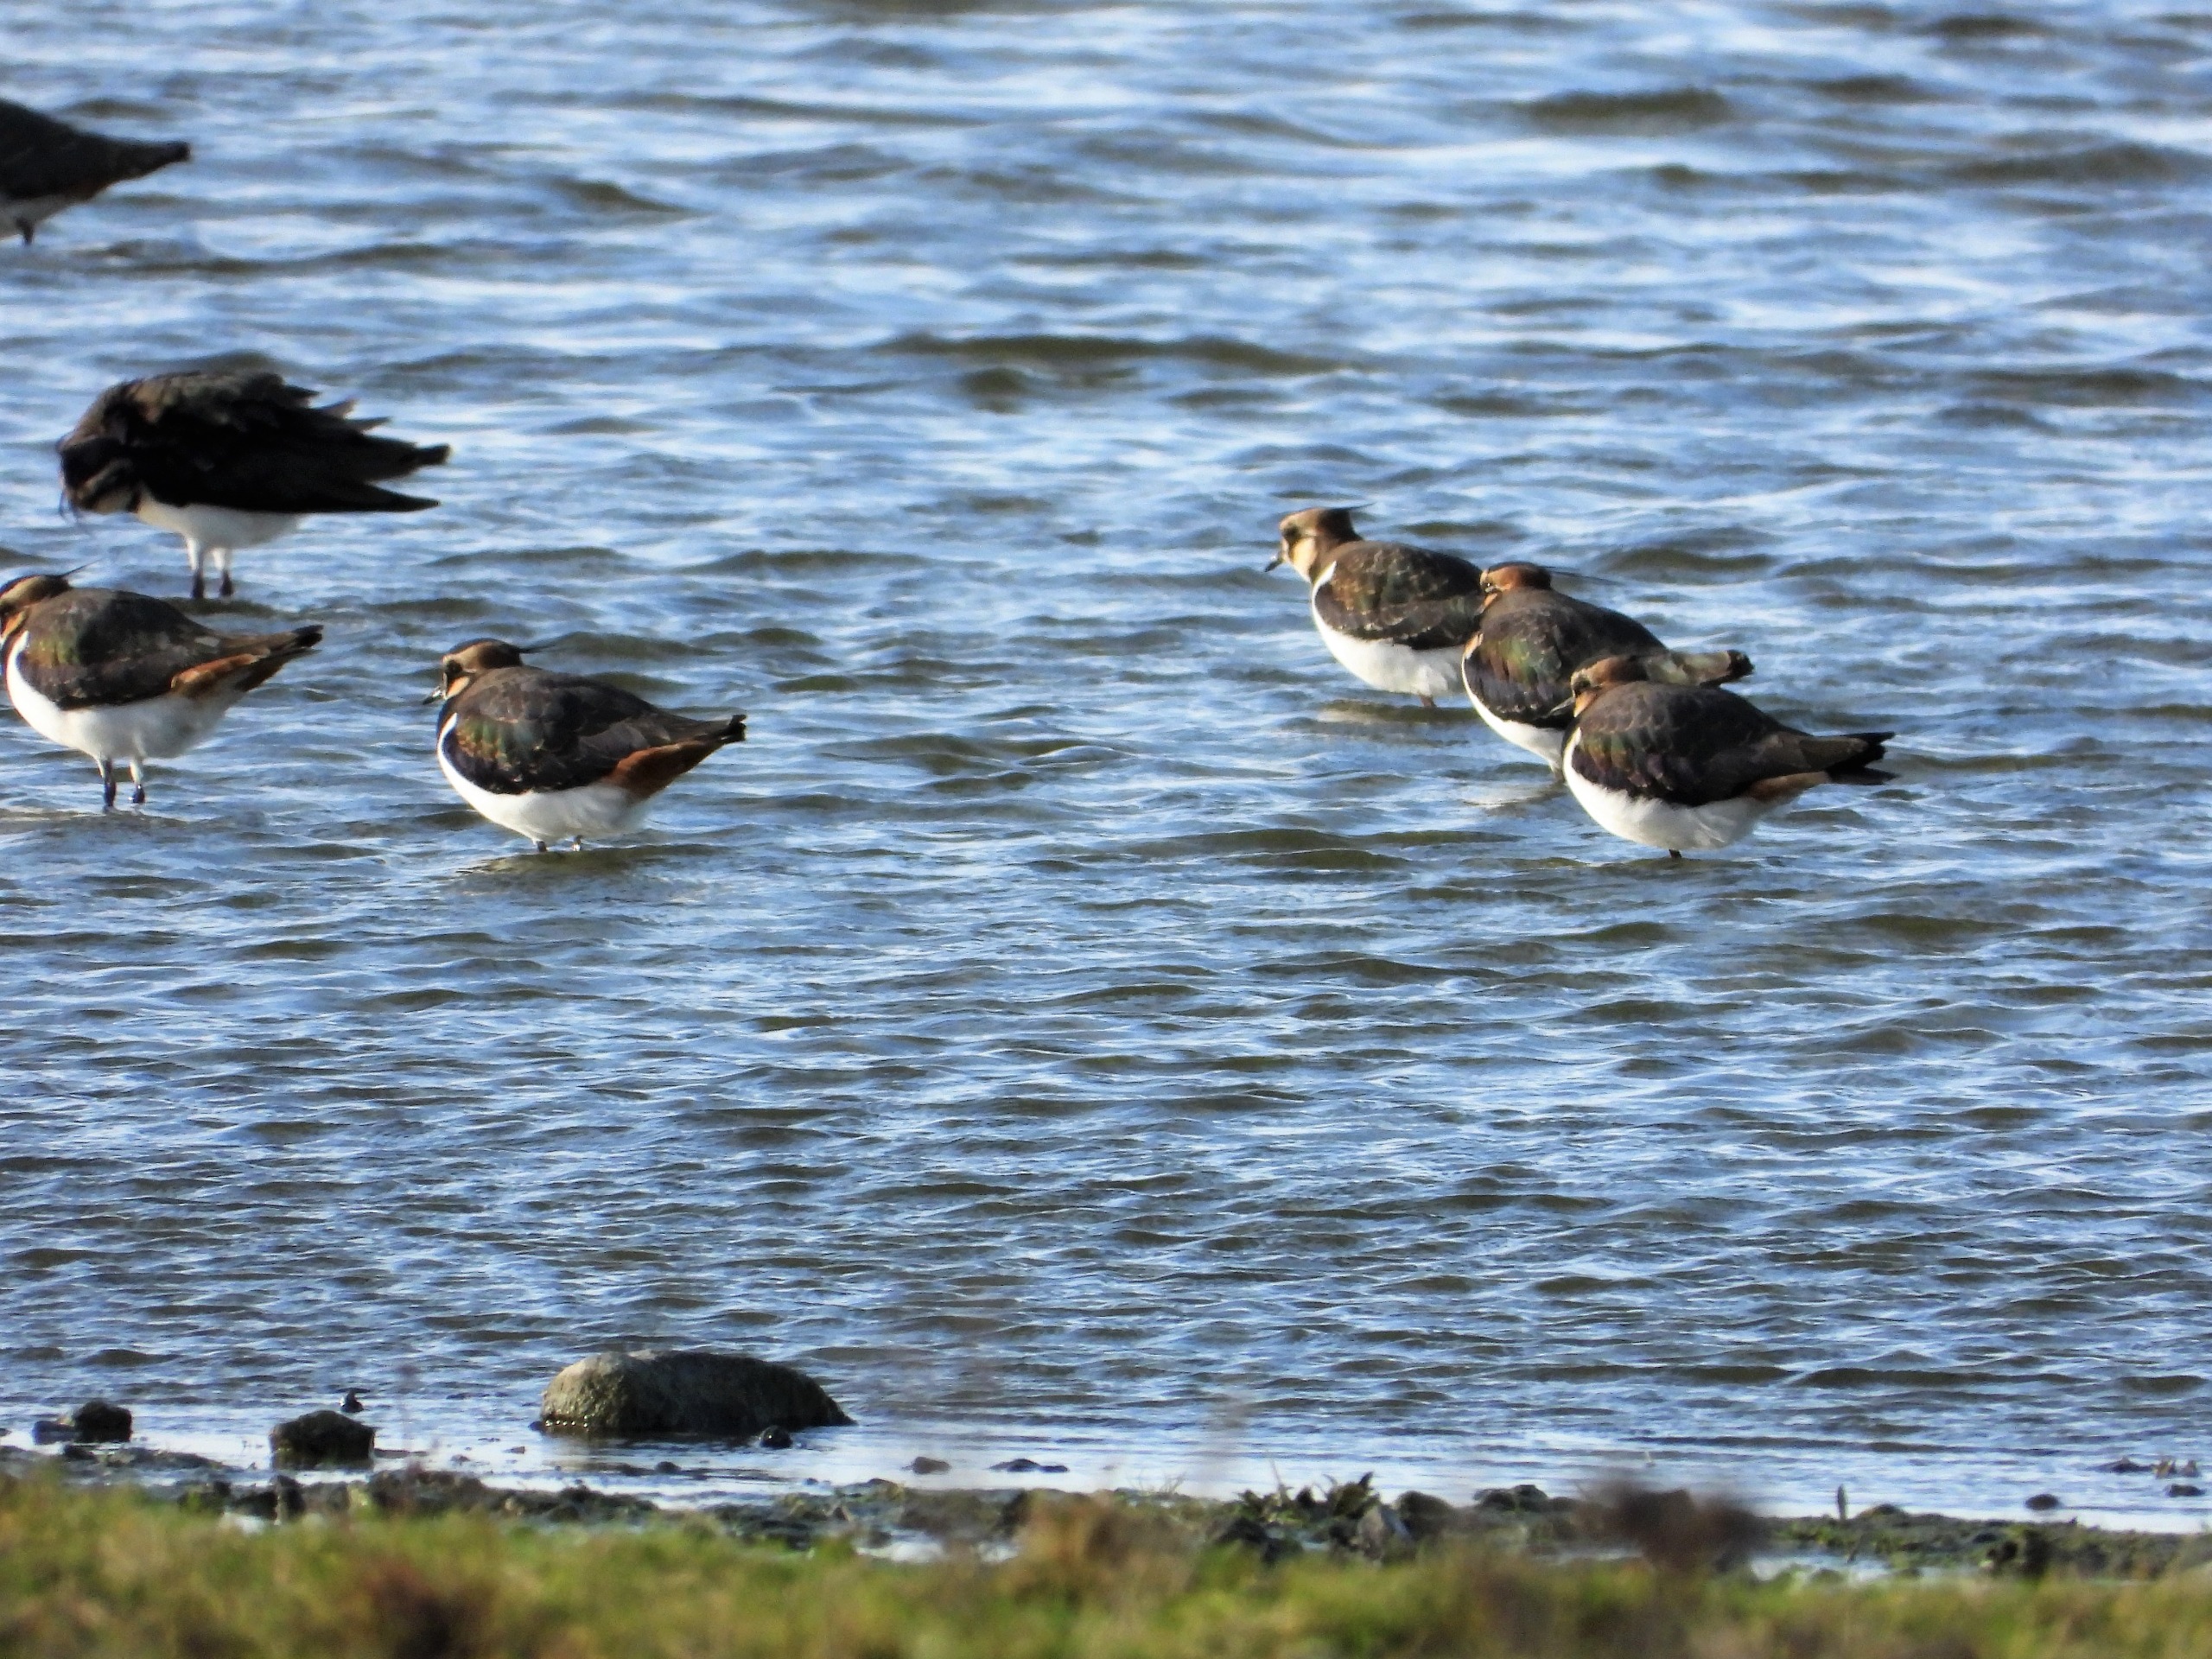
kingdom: Animalia
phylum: Chordata
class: Aves
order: Charadriiformes
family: Charadriidae
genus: Vanellus
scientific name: Vanellus vanellus
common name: Vibe
